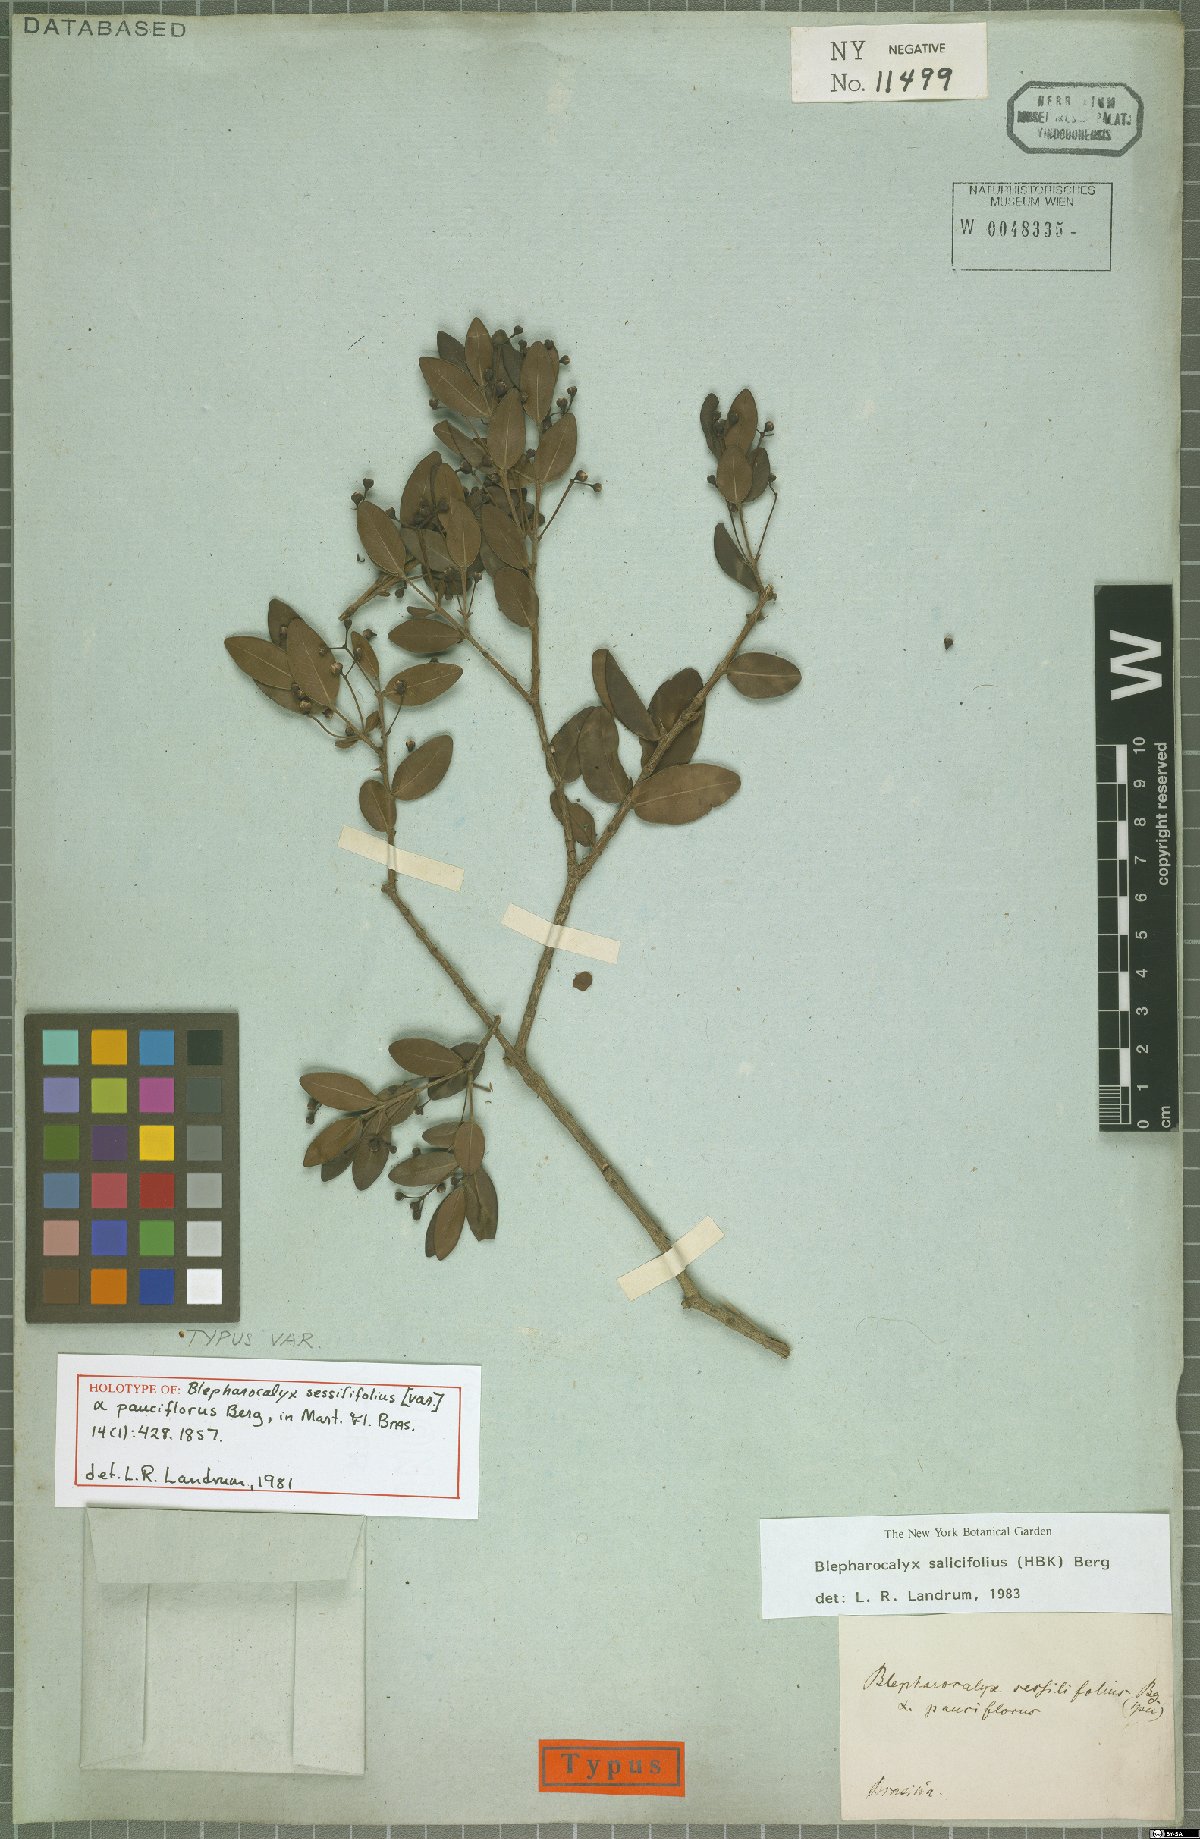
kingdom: Plantae
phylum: Tracheophyta
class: Magnoliopsida
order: Myrtales
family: Myrtaceae
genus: Blepharocalyx
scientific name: Blepharocalyx salicifolius
